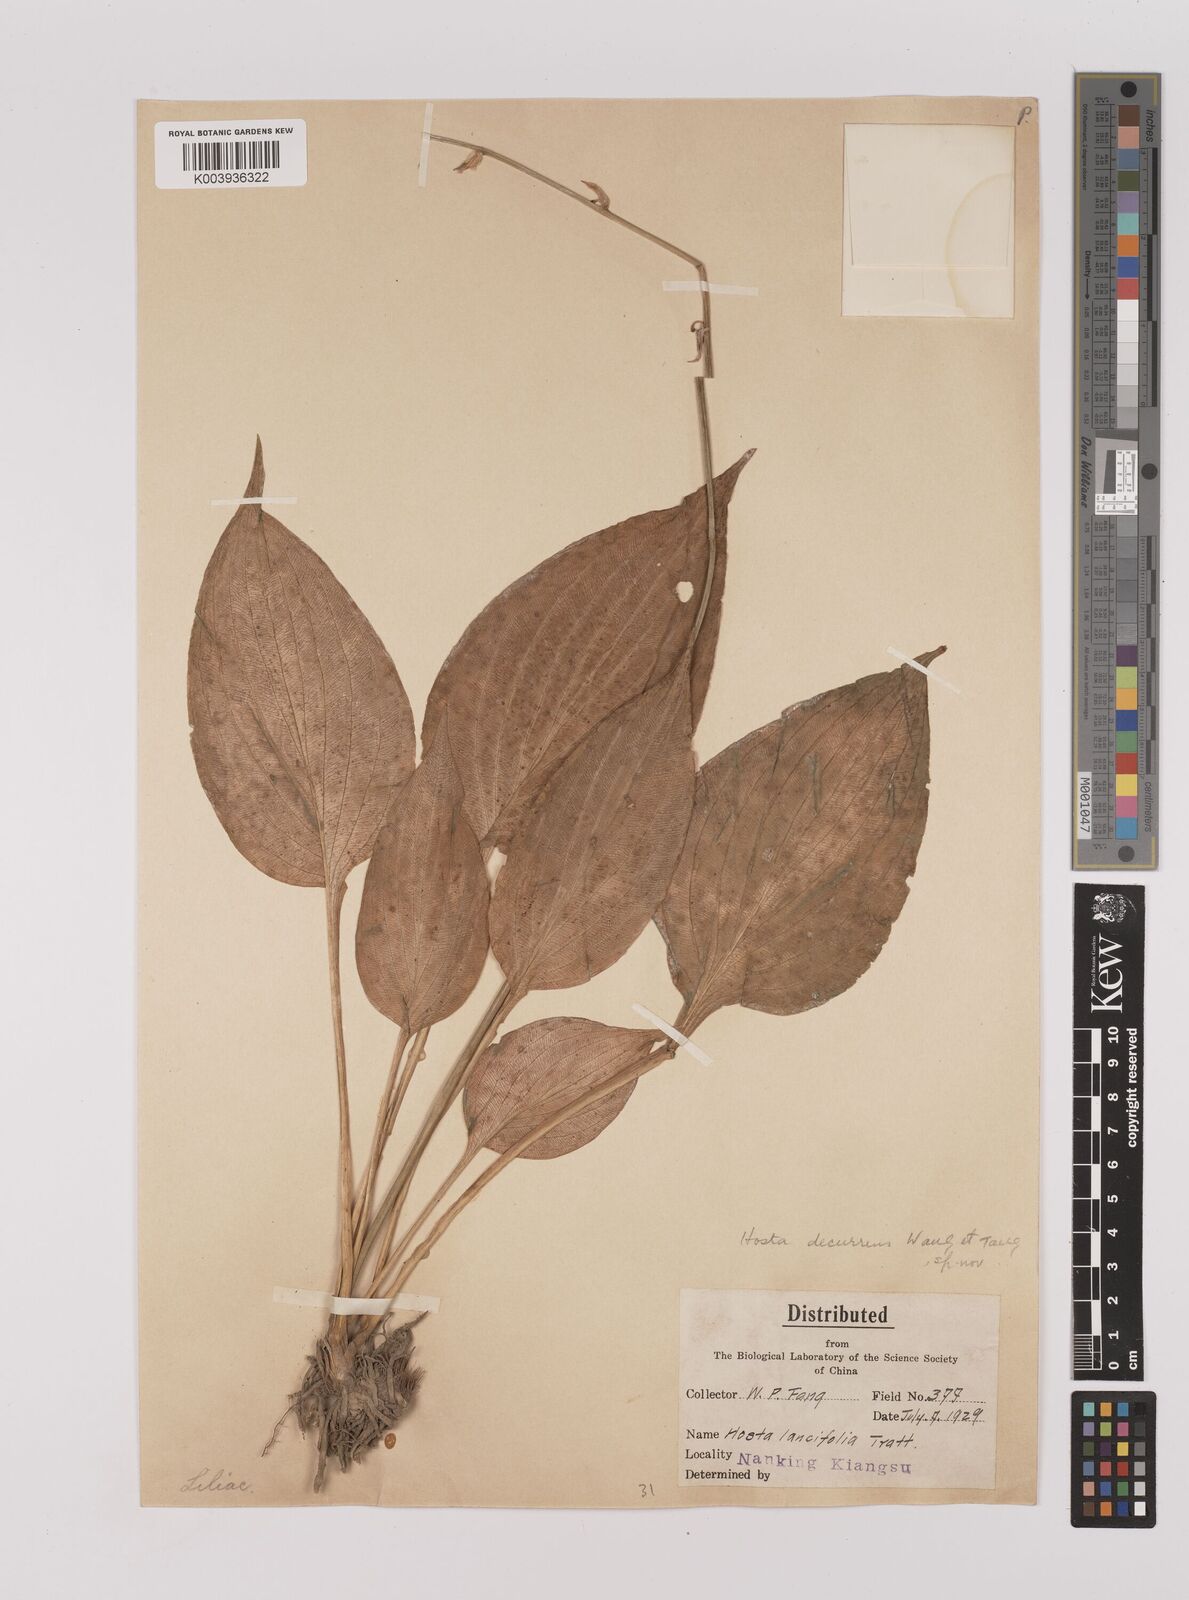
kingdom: Plantae
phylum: Tracheophyta
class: Liliopsida
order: Asparagales
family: Asparagaceae
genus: Hosta
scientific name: Hosta ventricosa
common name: Blue plantain-lily
